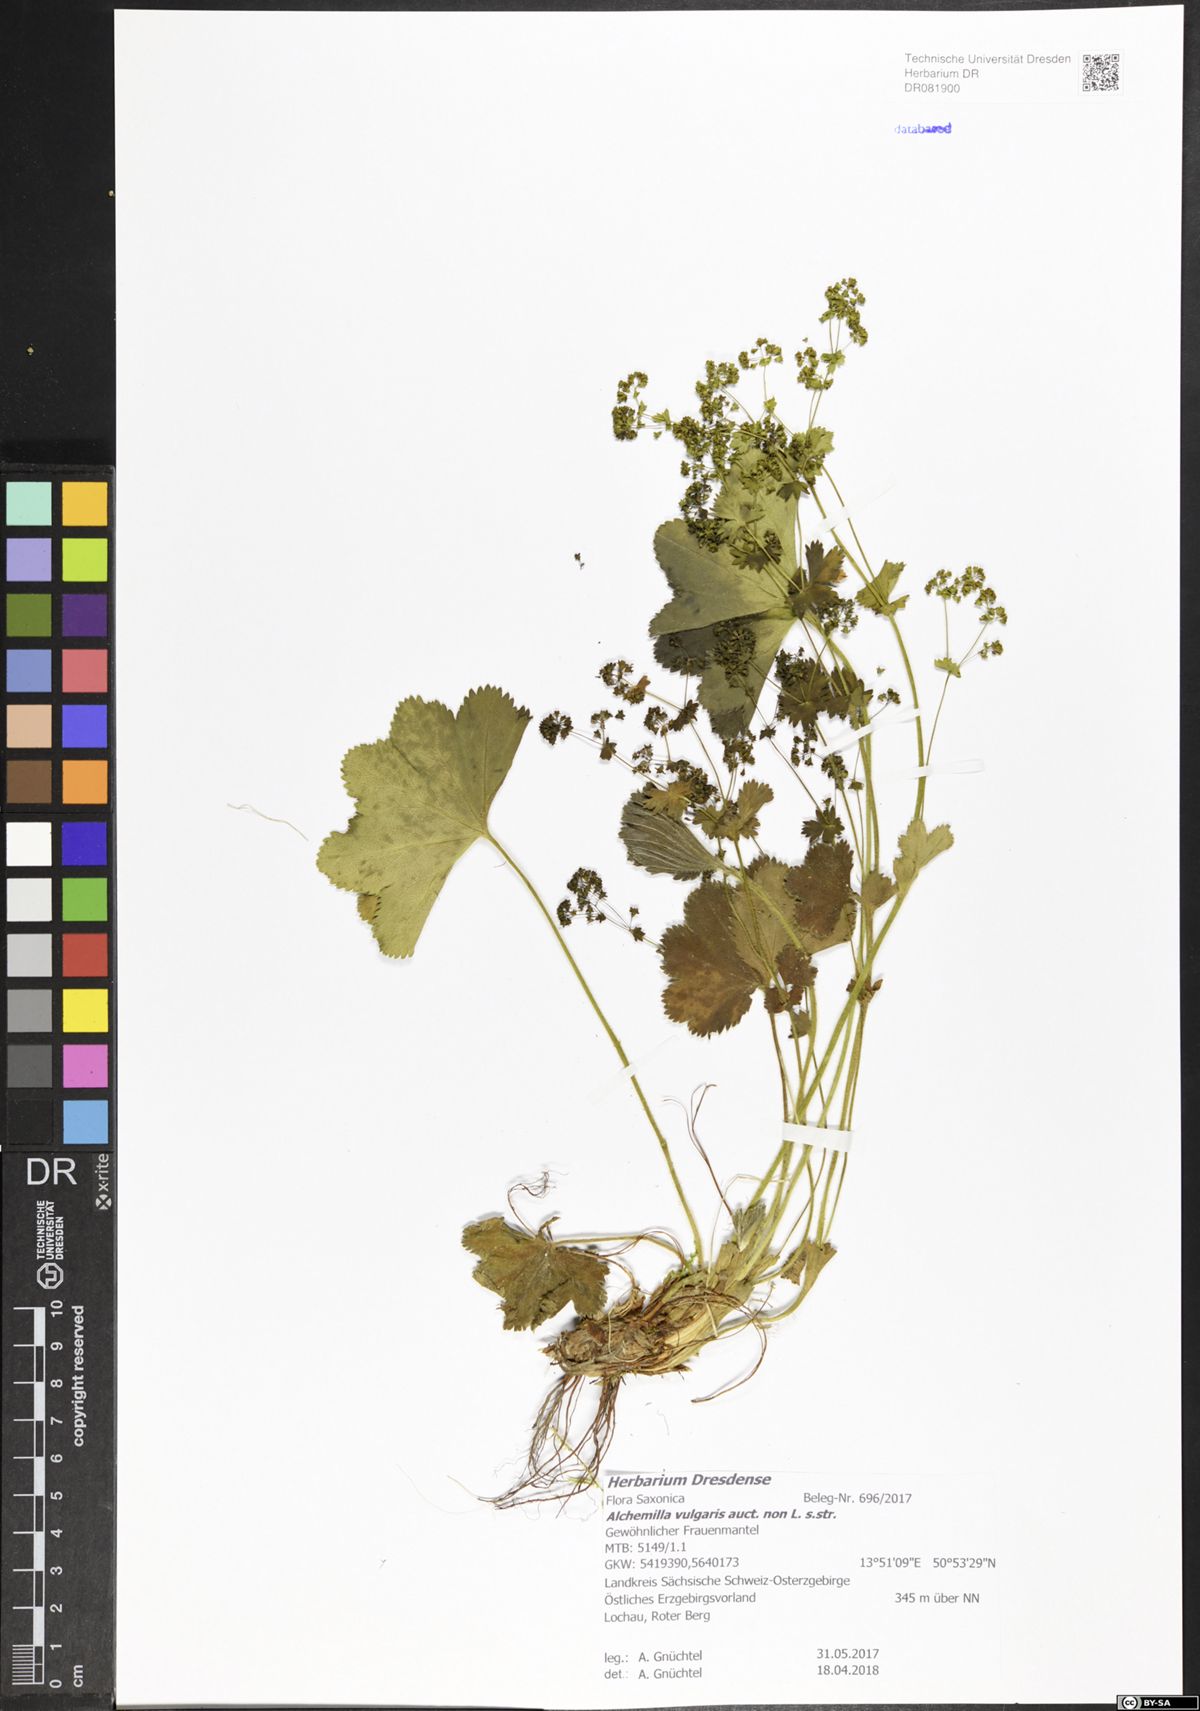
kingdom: Plantae
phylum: Tracheophyta
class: Magnoliopsida
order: Rosales
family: Rosaceae
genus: Alchemilla
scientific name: Alchemilla vulgaris
